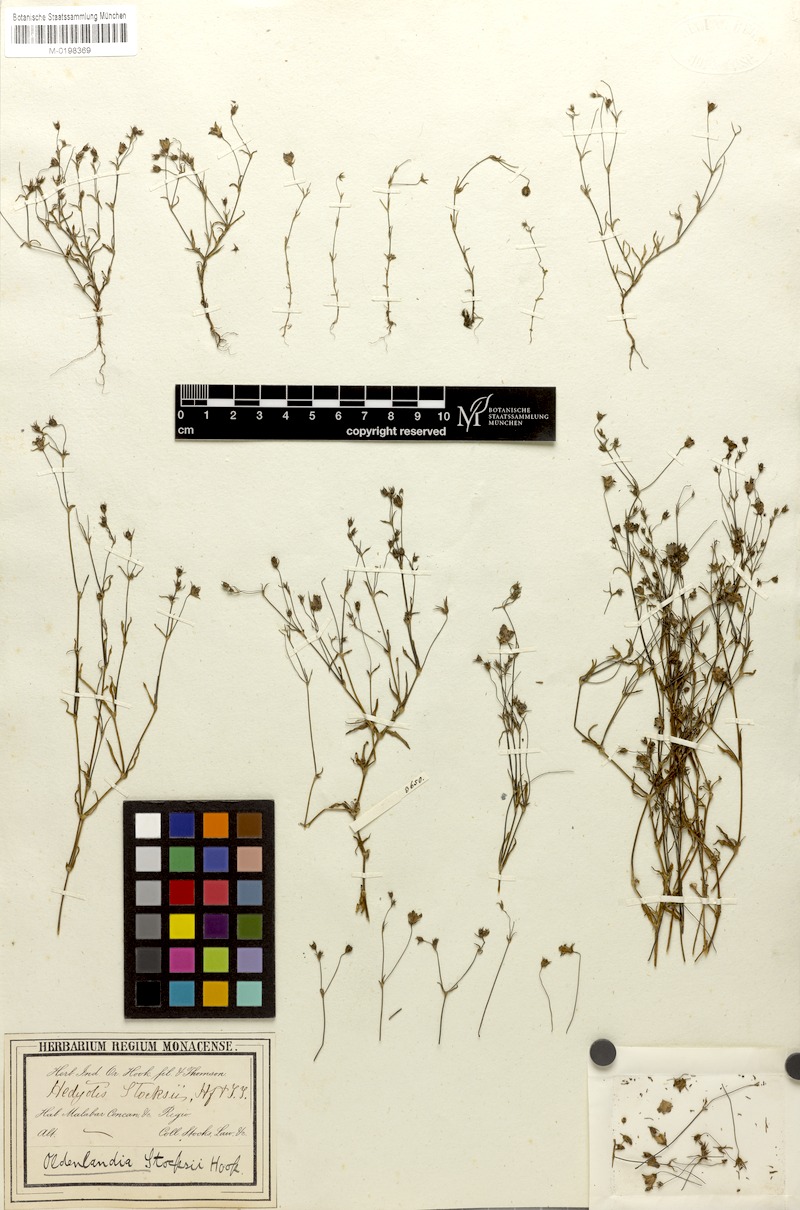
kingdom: Plantae
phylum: Tracheophyta
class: Magnoliopsida
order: Gentianales
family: Rubiaceae
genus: Oldenlandia
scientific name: Oldenlandia stocksii
